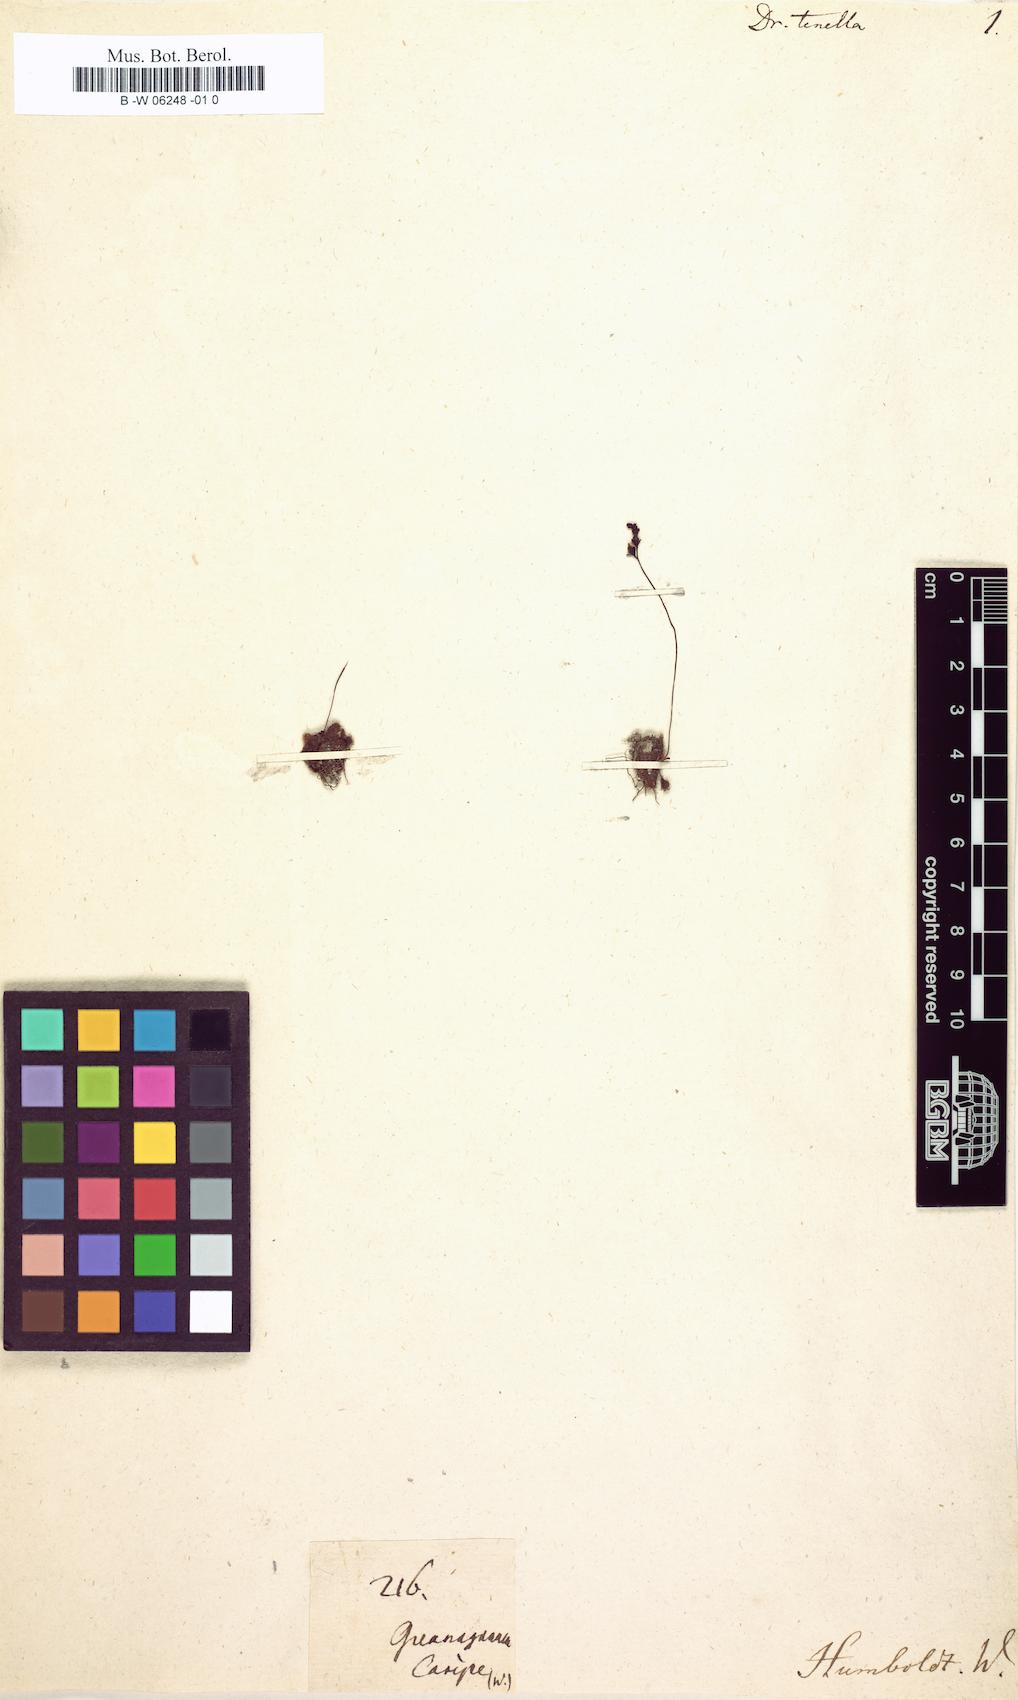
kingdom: Plantae
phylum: Tracheophyta
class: Magnoliopsida
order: Caryophyllales
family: Droseraceae
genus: Drosera
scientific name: Drosera capillaris
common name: Pink sundew
